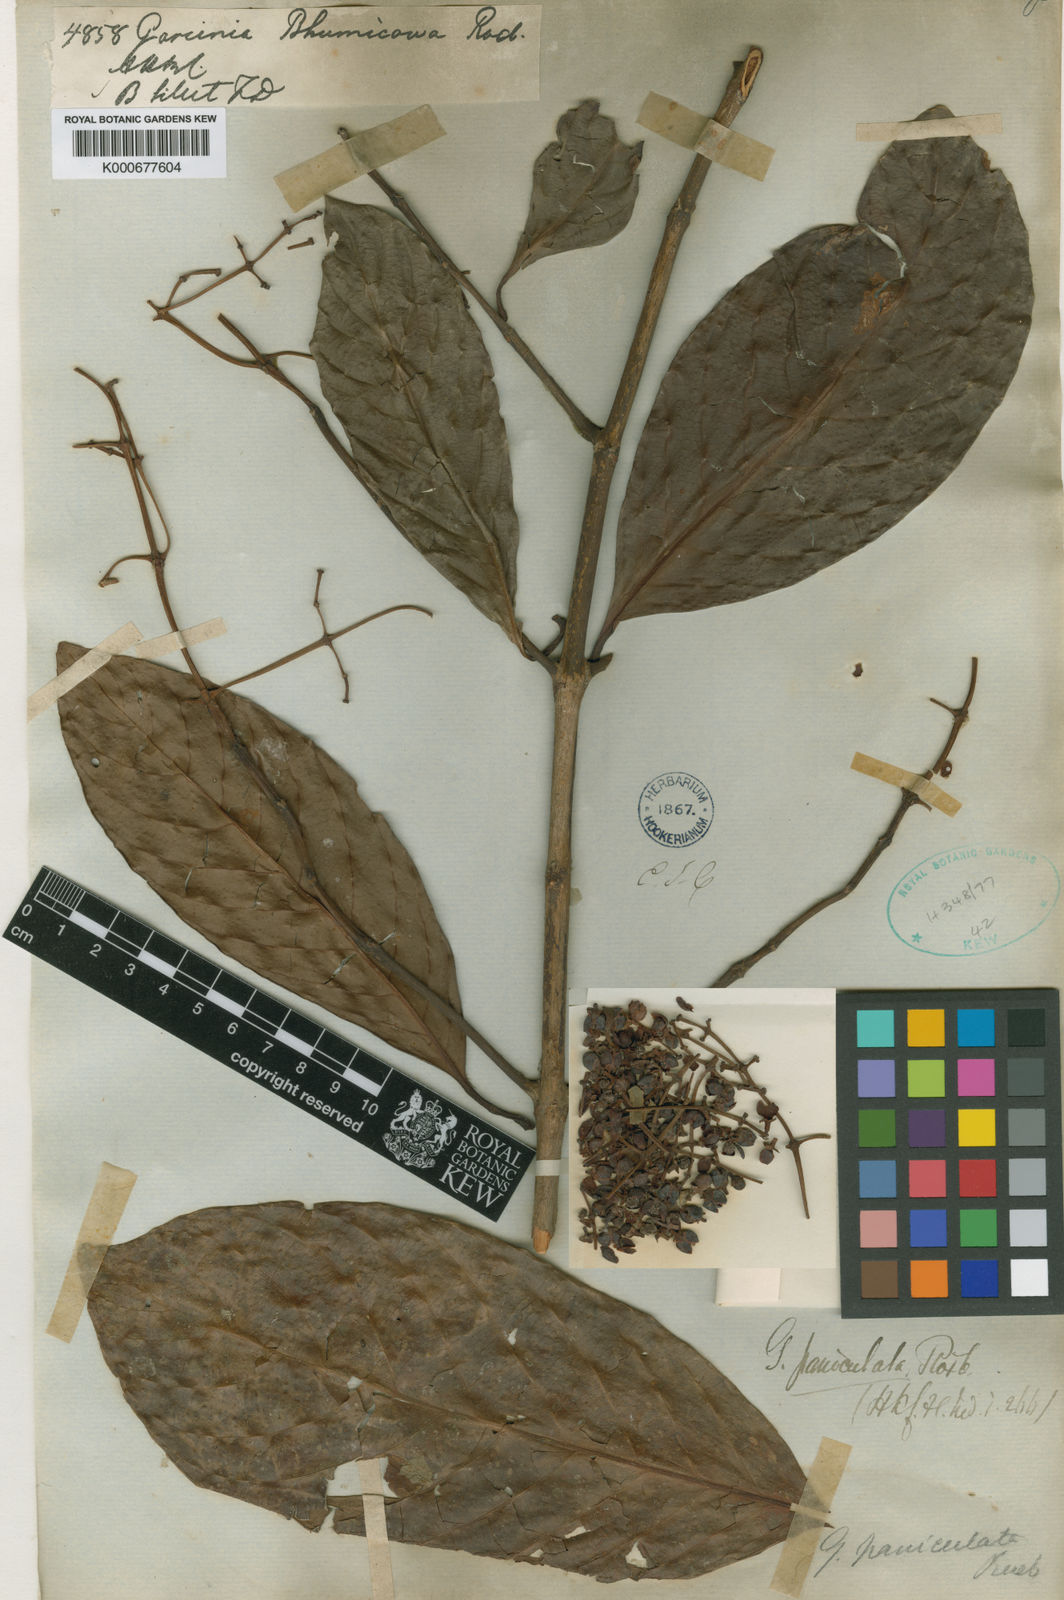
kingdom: Plantae
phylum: Tracheophyta
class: Magnoliopsida
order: Malpighiales
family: Clusiaceae
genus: Garcinia
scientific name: Garcinia
